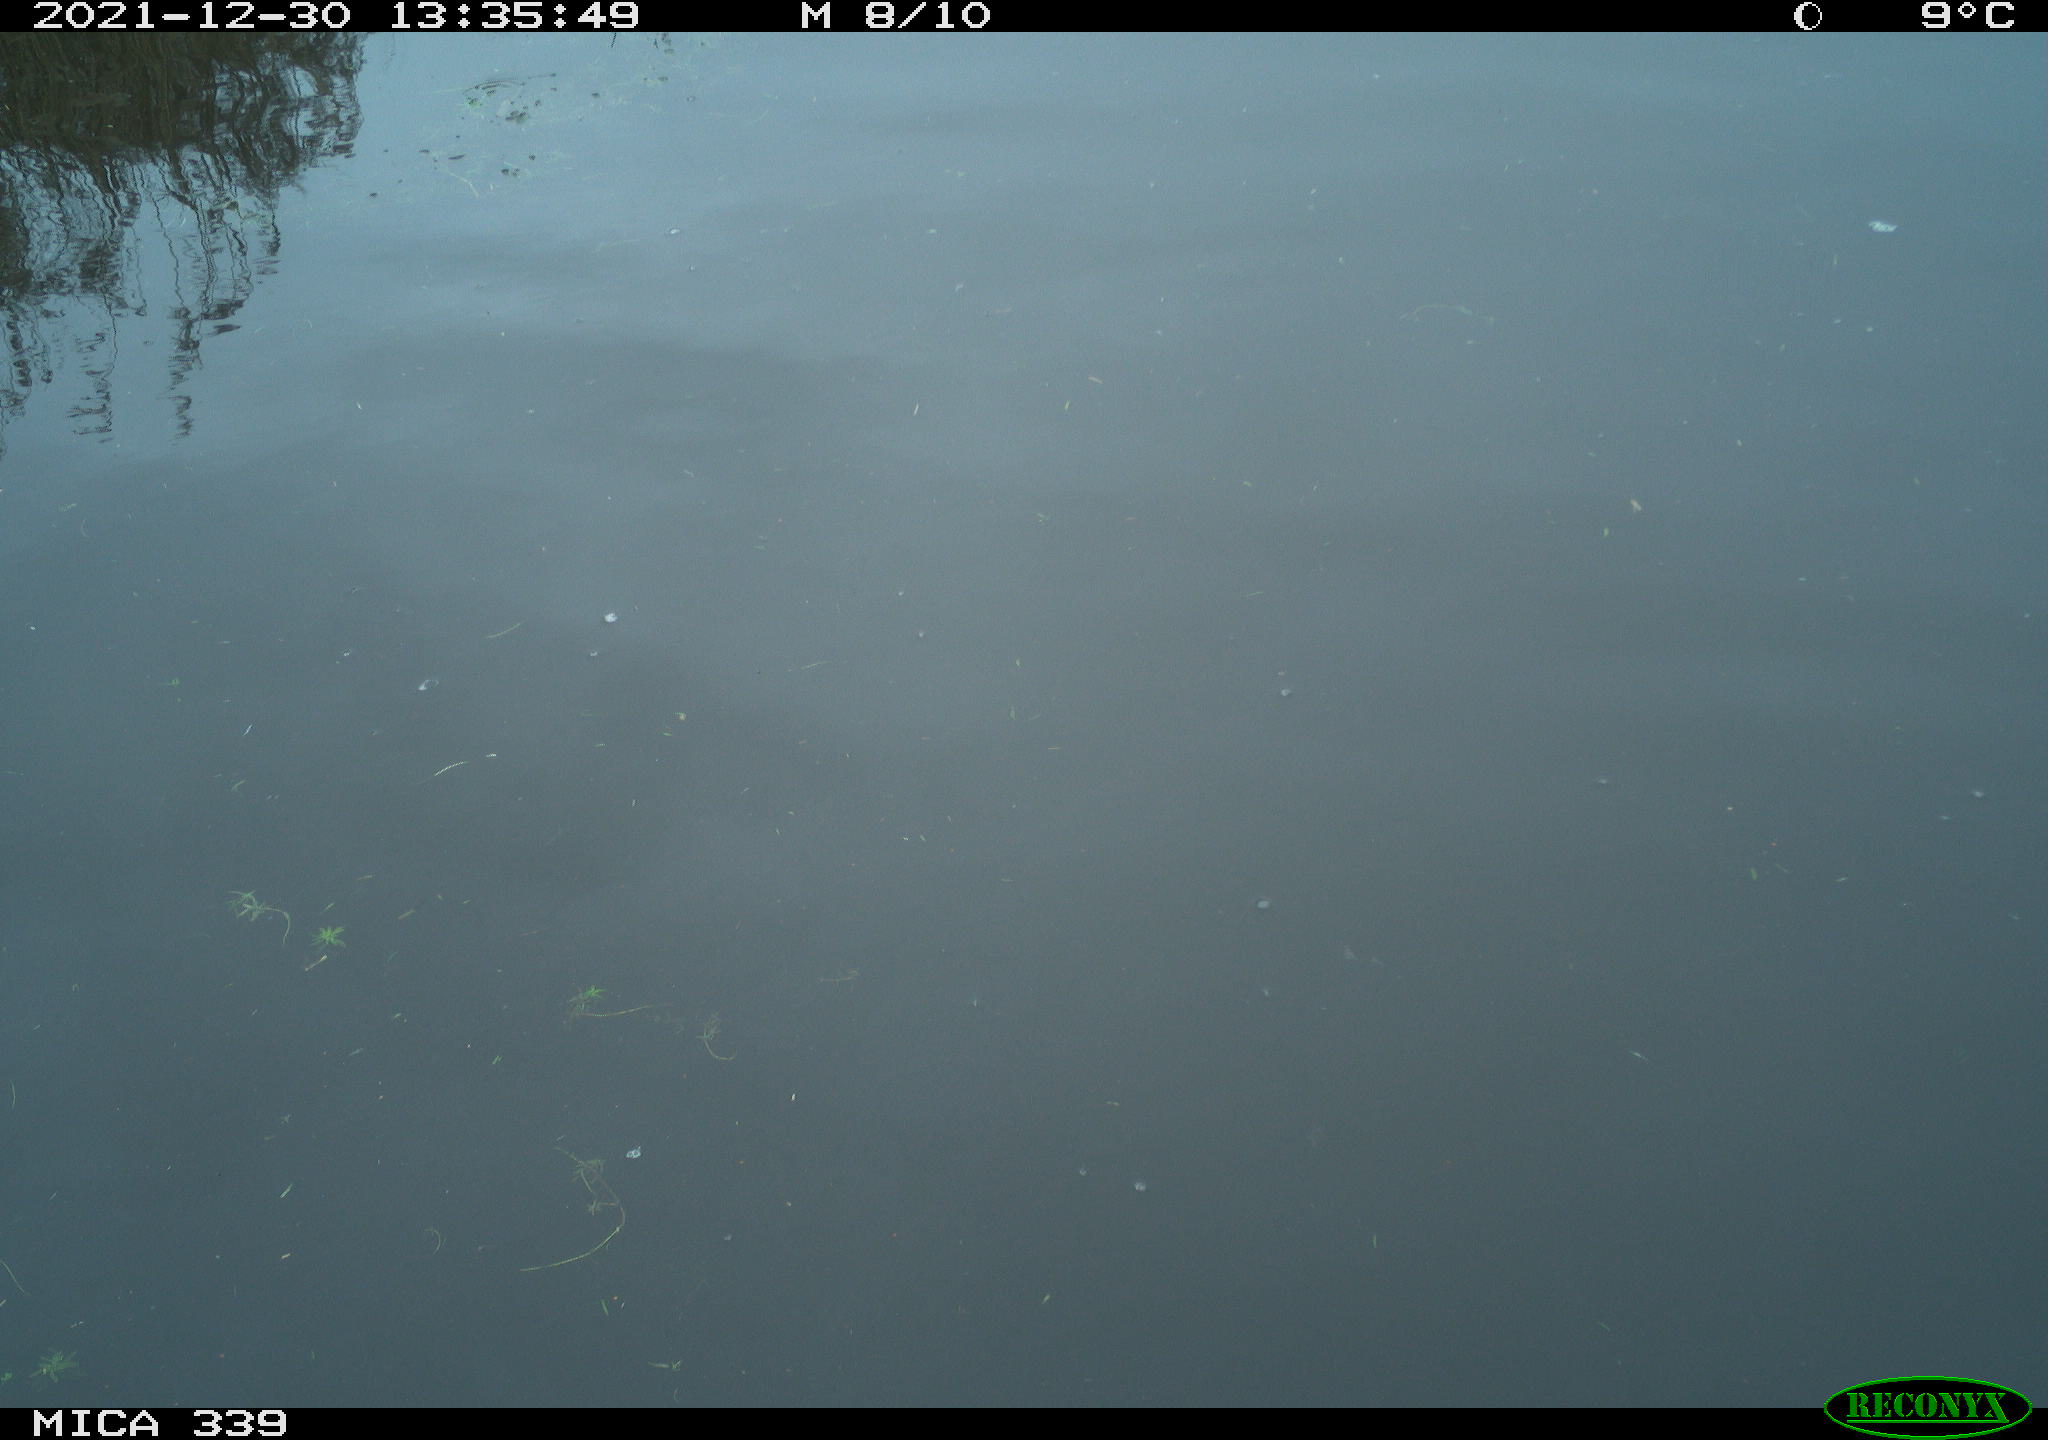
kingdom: Animalia
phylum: Chordata
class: Aves
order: Gruiformes
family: Rallidae
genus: Gallinula
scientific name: Gallinula chloropus
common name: Common moorhen
